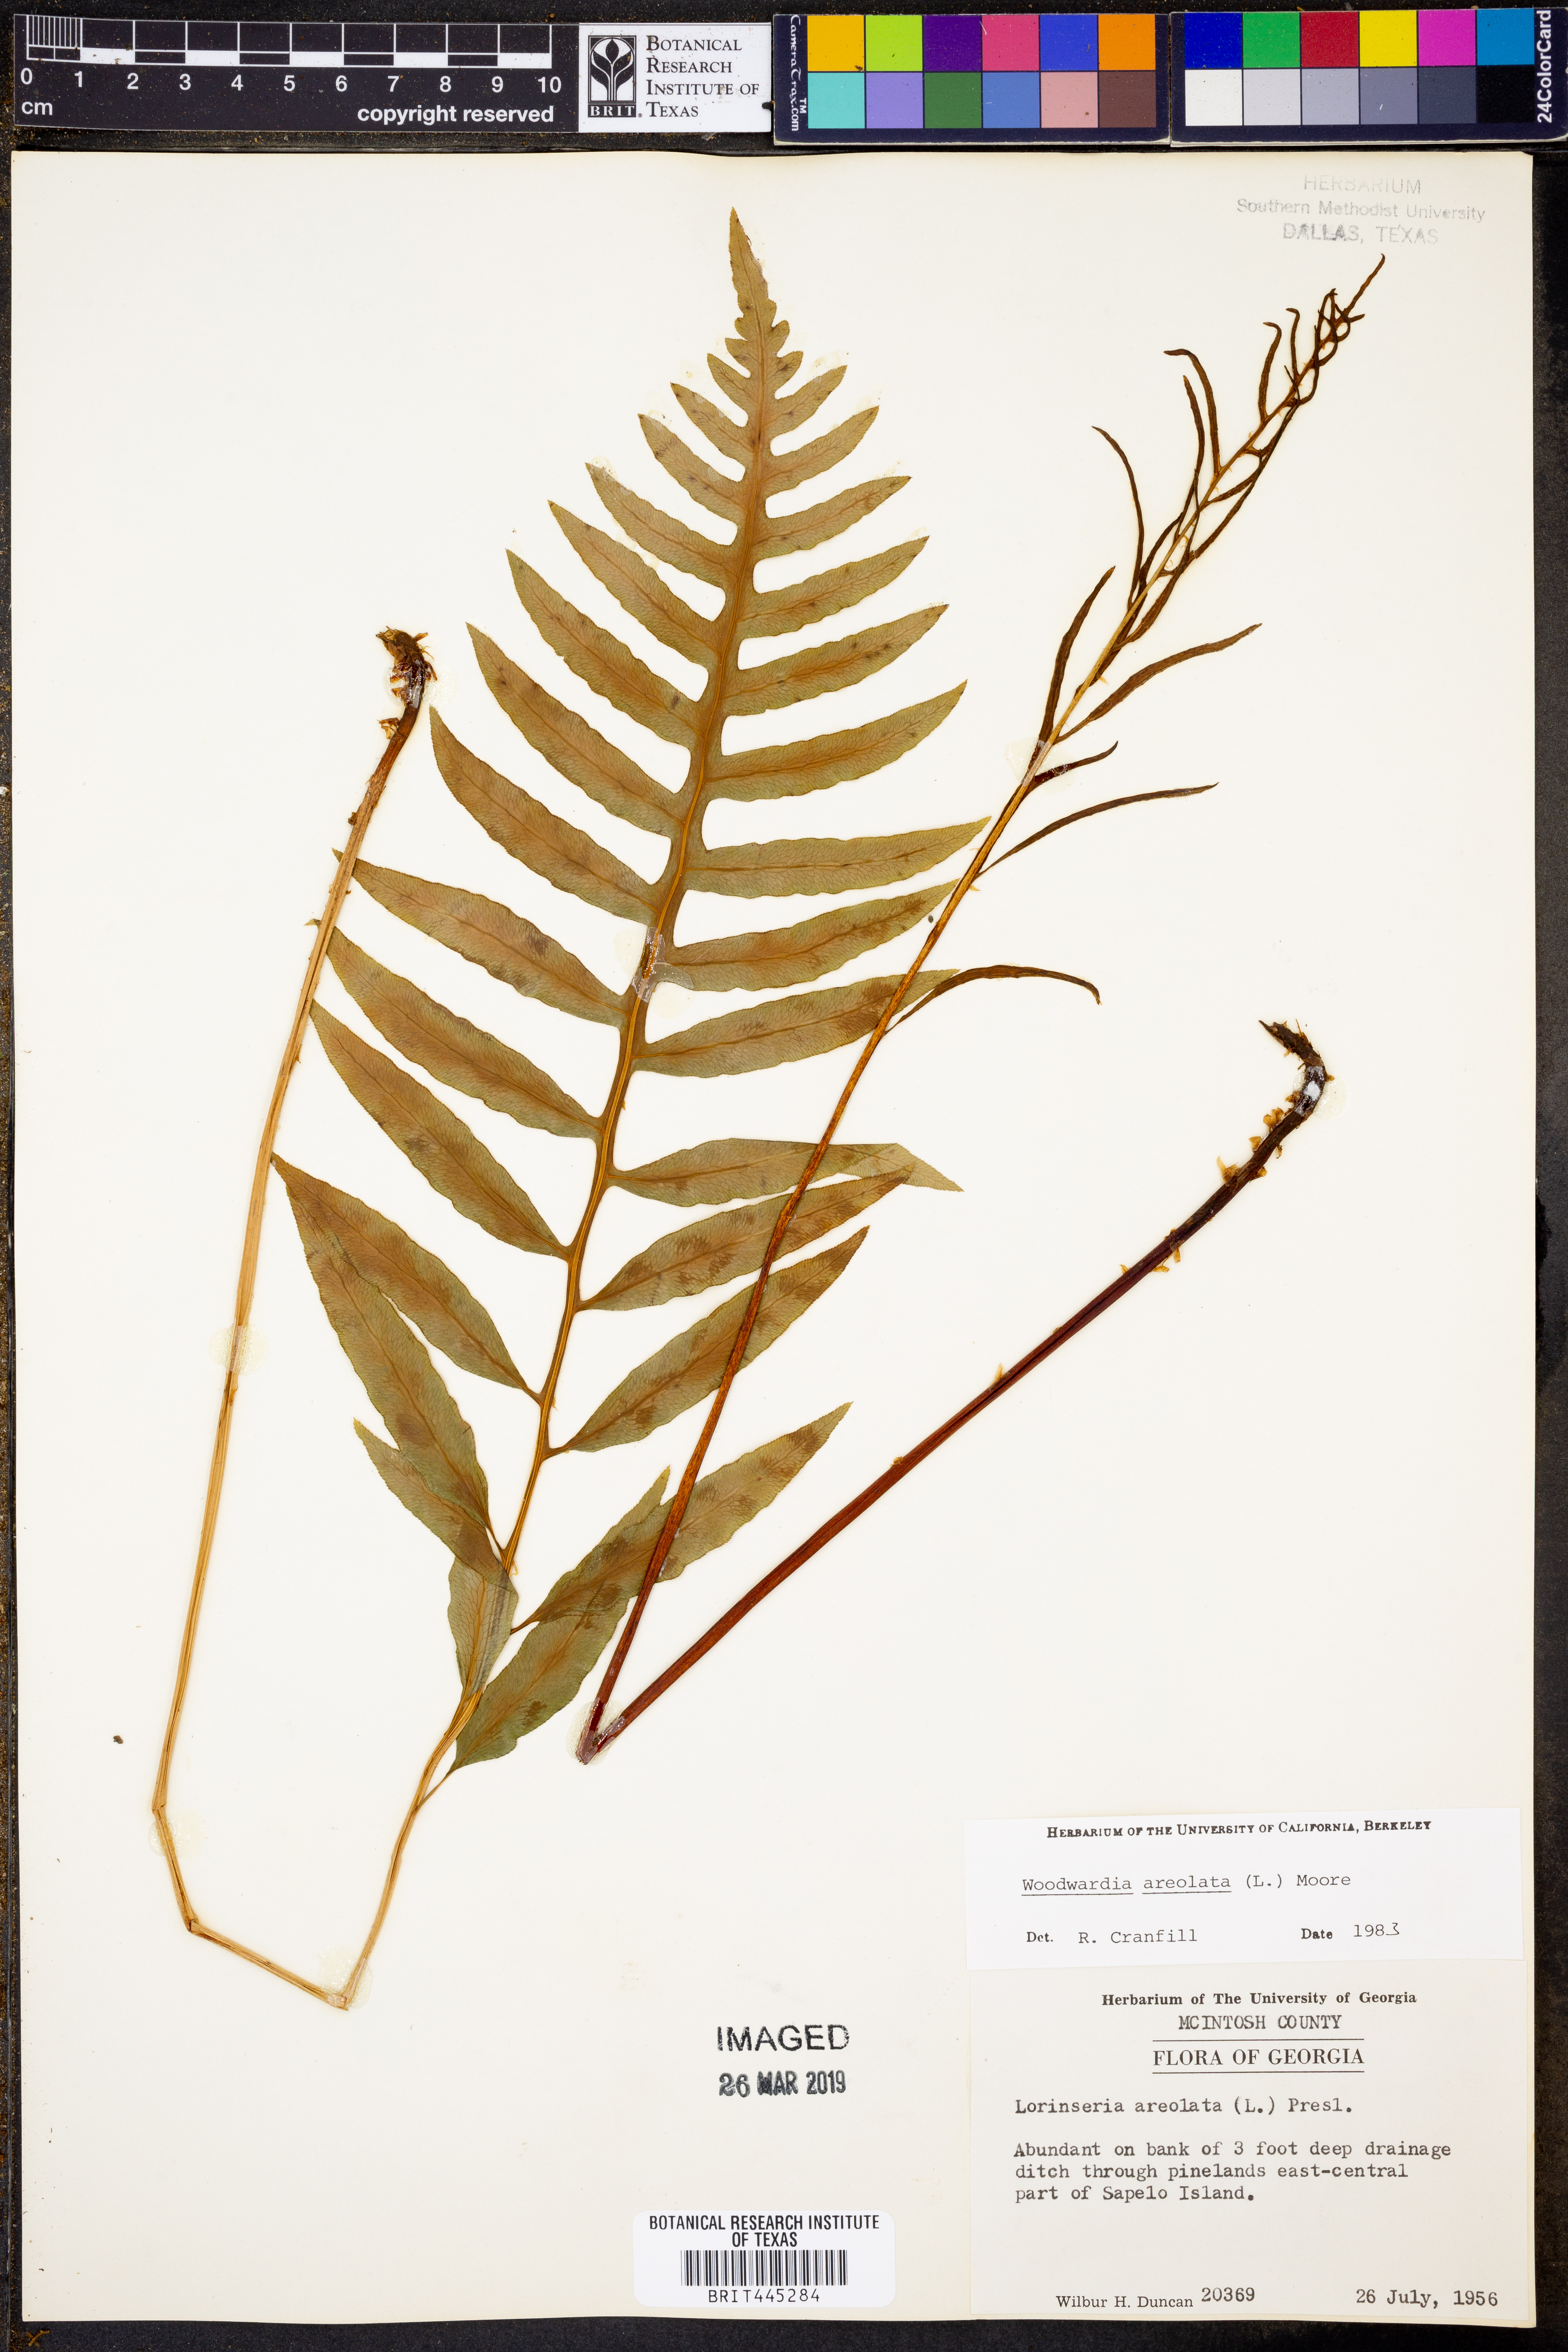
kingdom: Plantae
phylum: Tracheophyta
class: Polypodiopsida
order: Polypodiales
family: Blechnaceae
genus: Lorinseria
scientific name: Lorinseria areolata
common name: Dwarf chain fern
